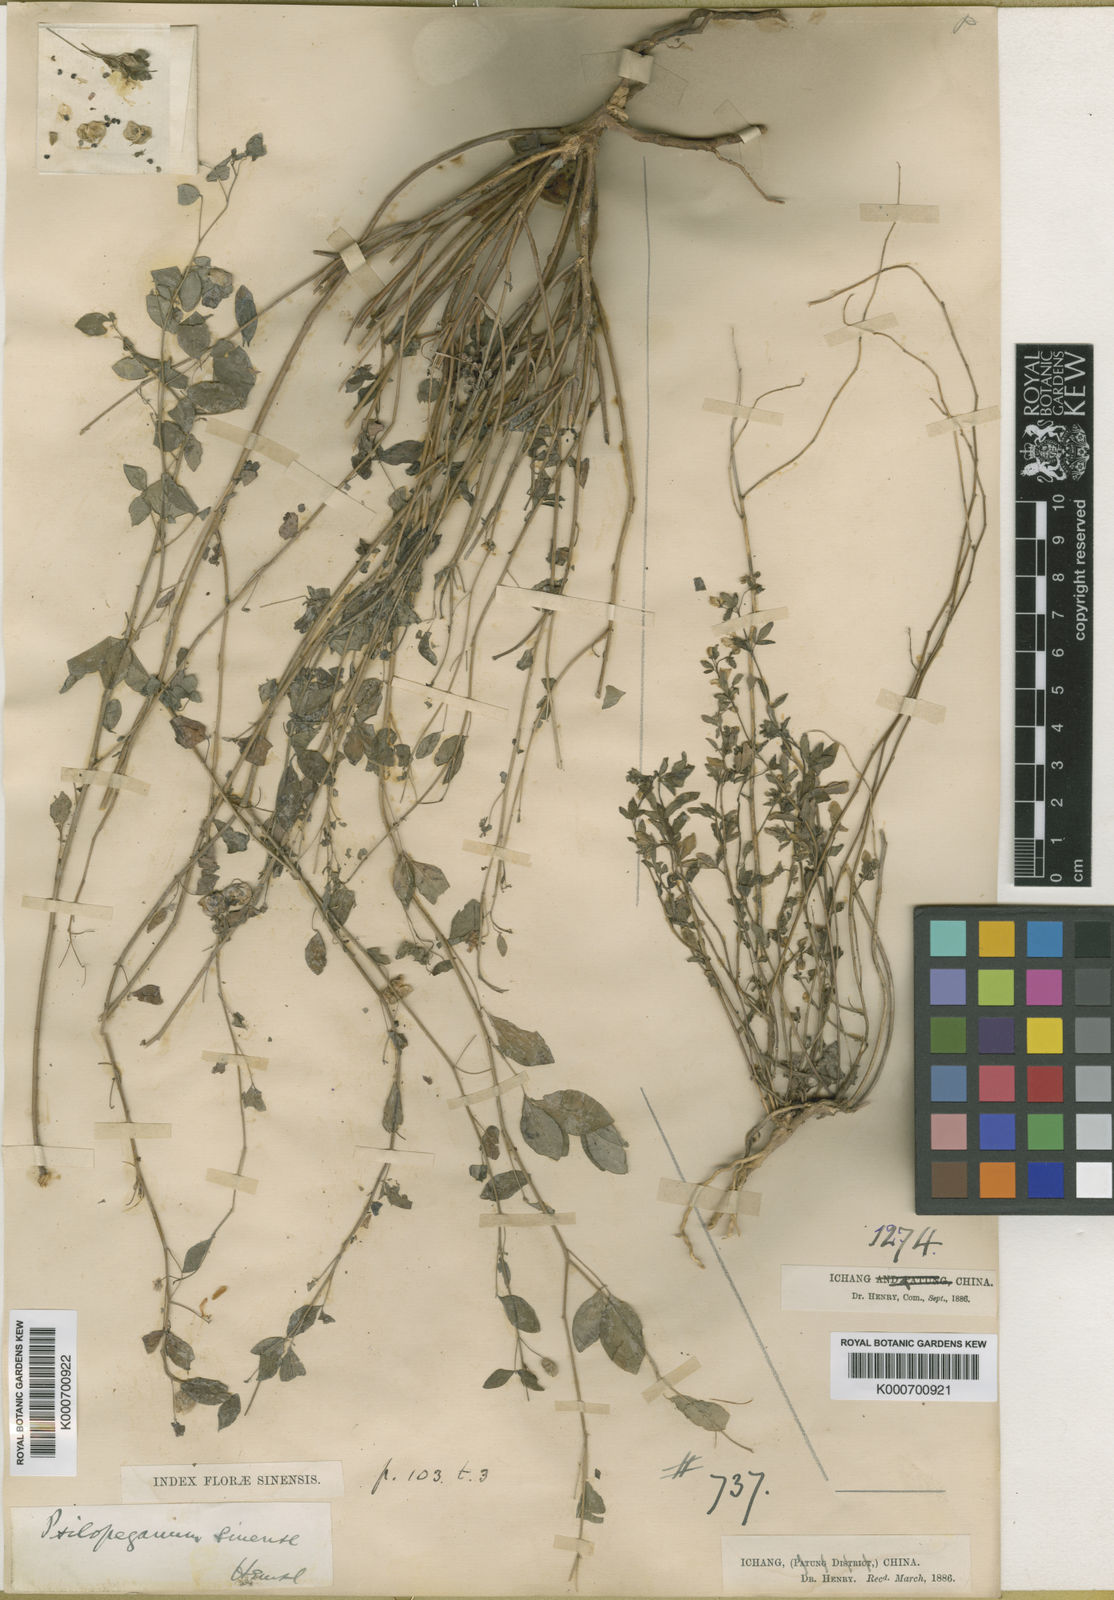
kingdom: Plantae
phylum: Tracheophyta
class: Magnoliopsida
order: Sapindales
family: Rutaceae
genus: Psilopeganum
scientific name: Psilopeganum sinense
